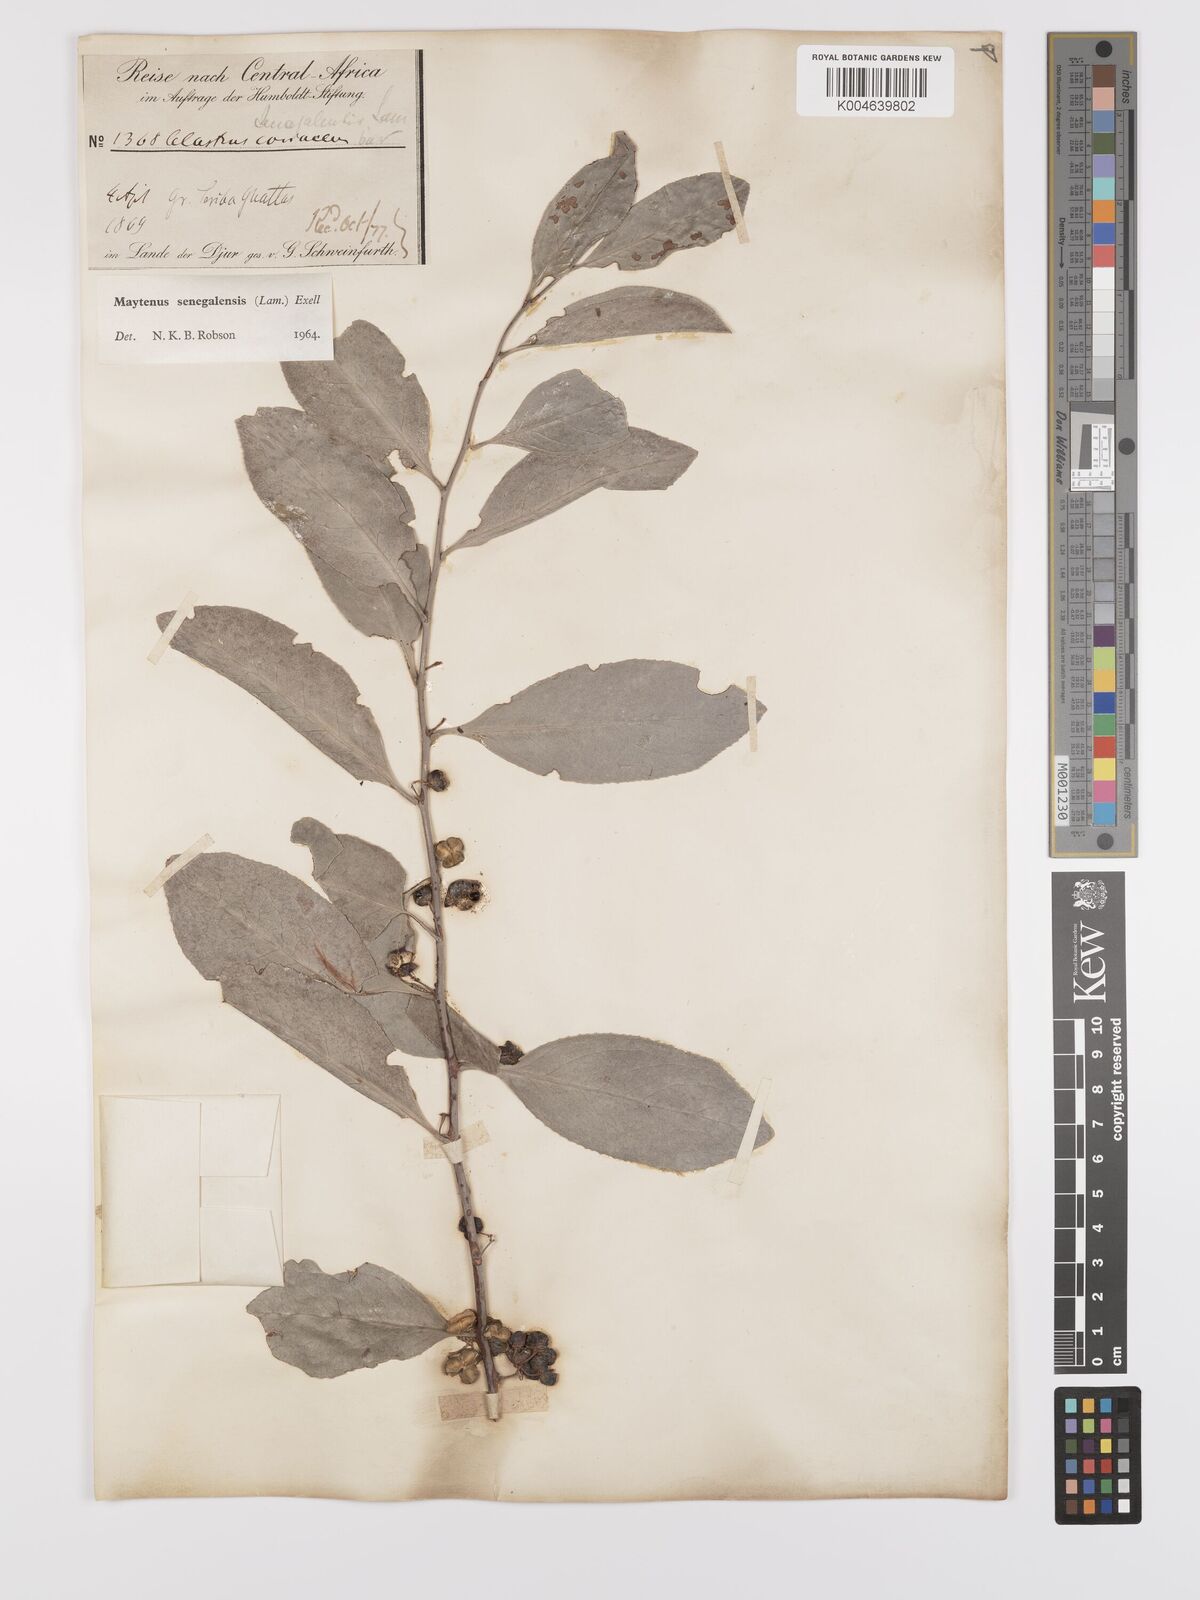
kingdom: Plantae
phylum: Tracheophyta
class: Magnoliopsida
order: Celastrales
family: Celastraceae
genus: Gymnosporia
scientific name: Gymnosporia senegalensis
